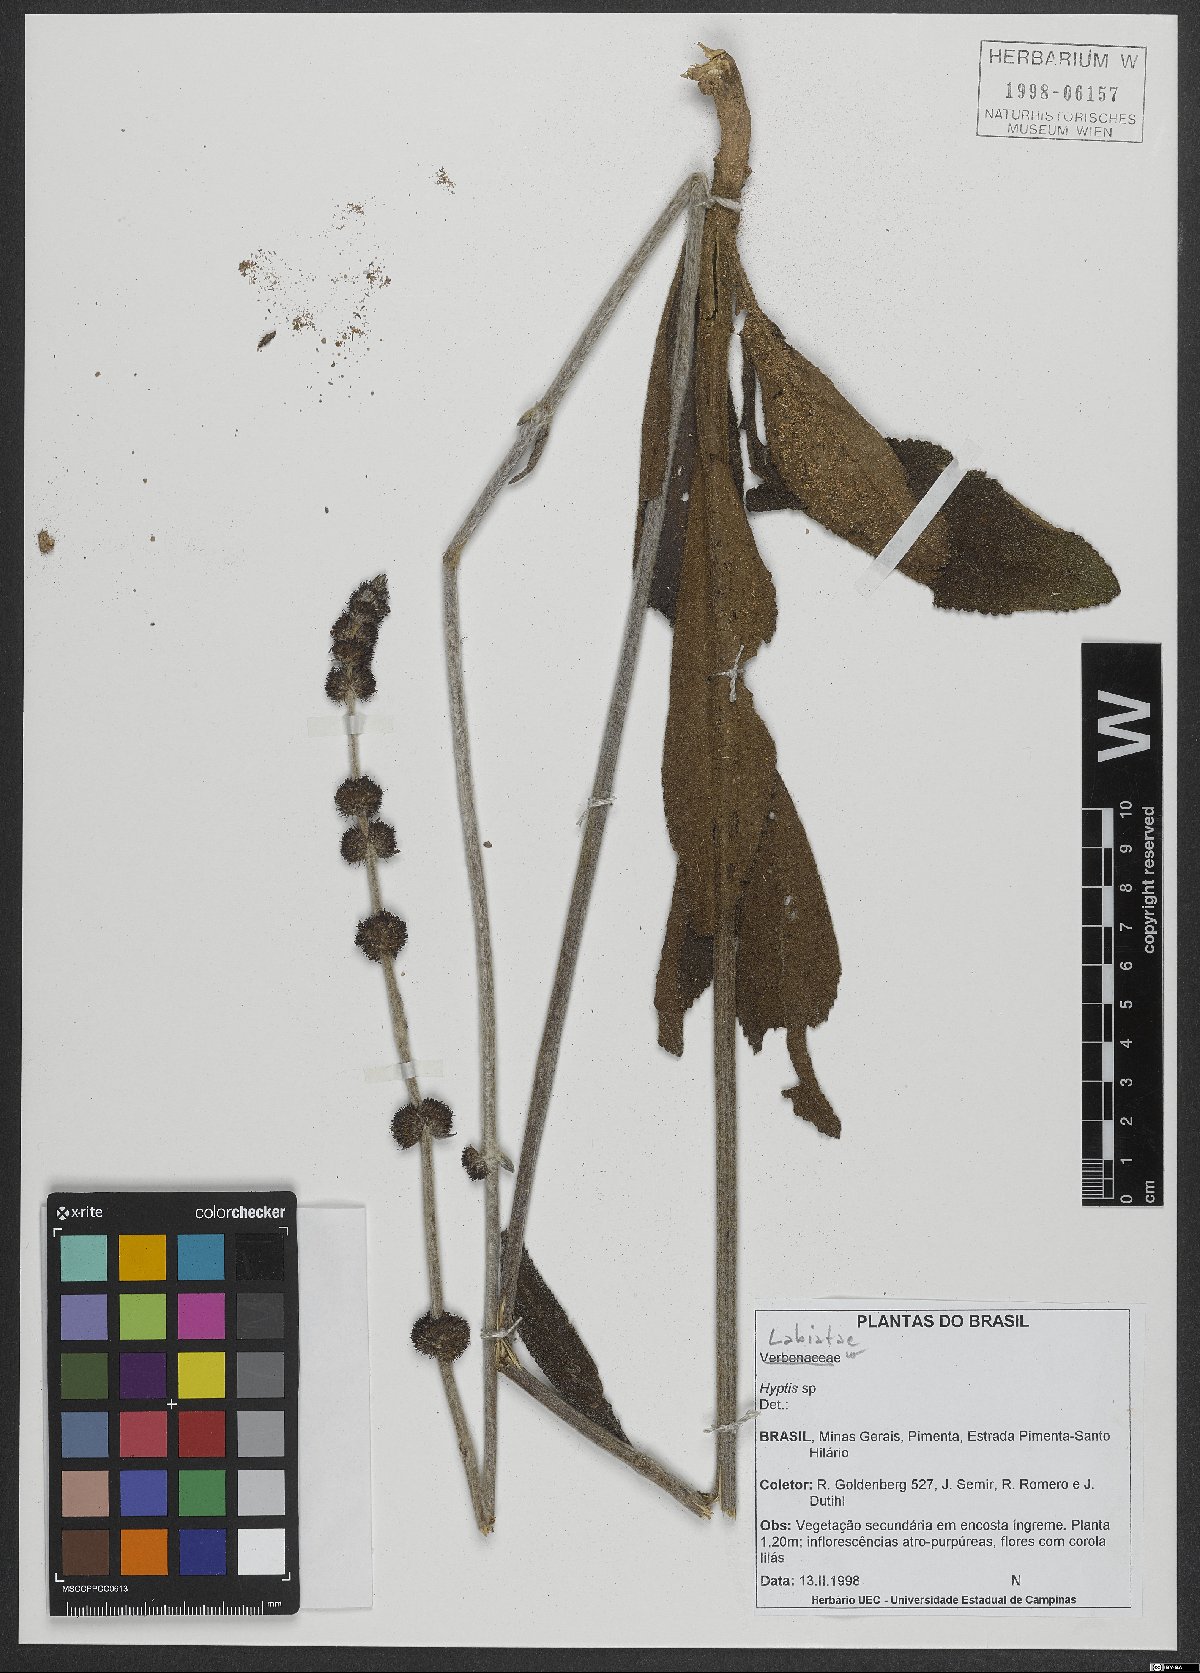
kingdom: Plantae
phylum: Tracheophyta
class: Magnoliopsida
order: Lamiales
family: Lamiaceae
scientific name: Lamiaceae
